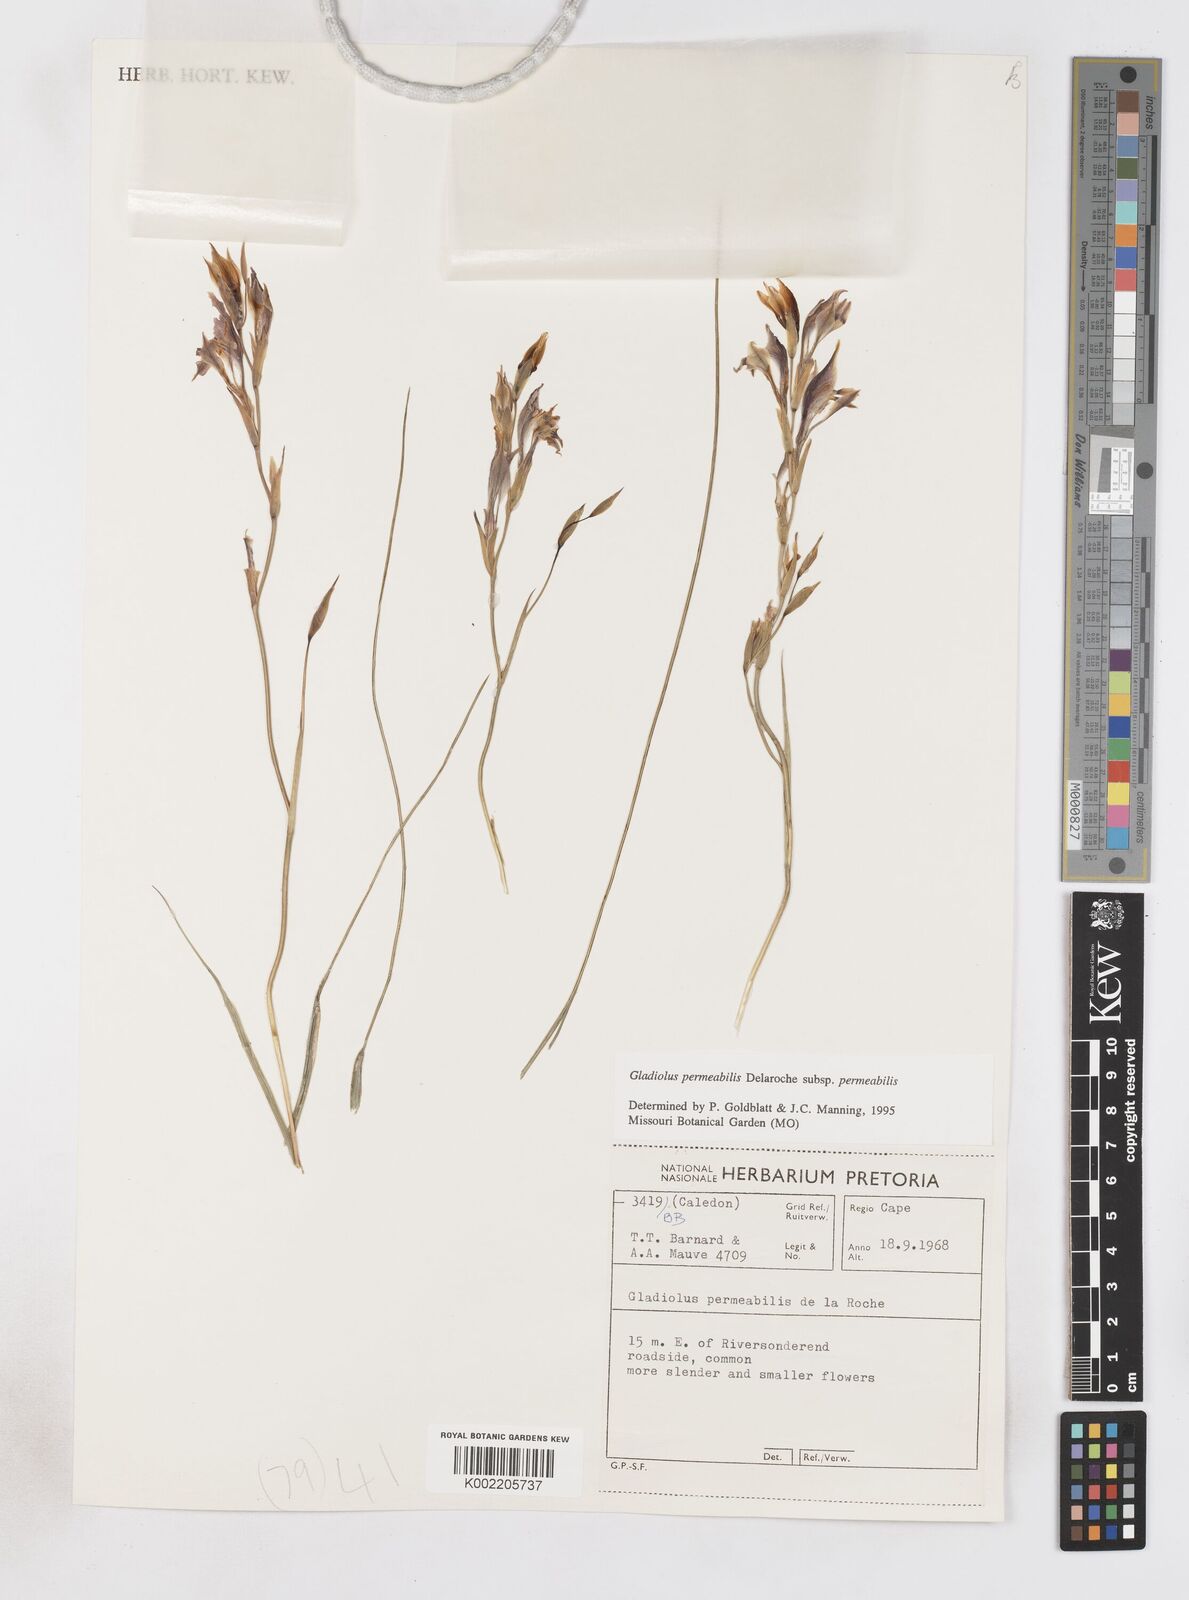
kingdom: Plantae
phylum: Tracheophyta
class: Liliopsida
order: Asparagales
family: Iridaceae
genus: Gladiolus
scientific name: Gladiolus permeabilis
